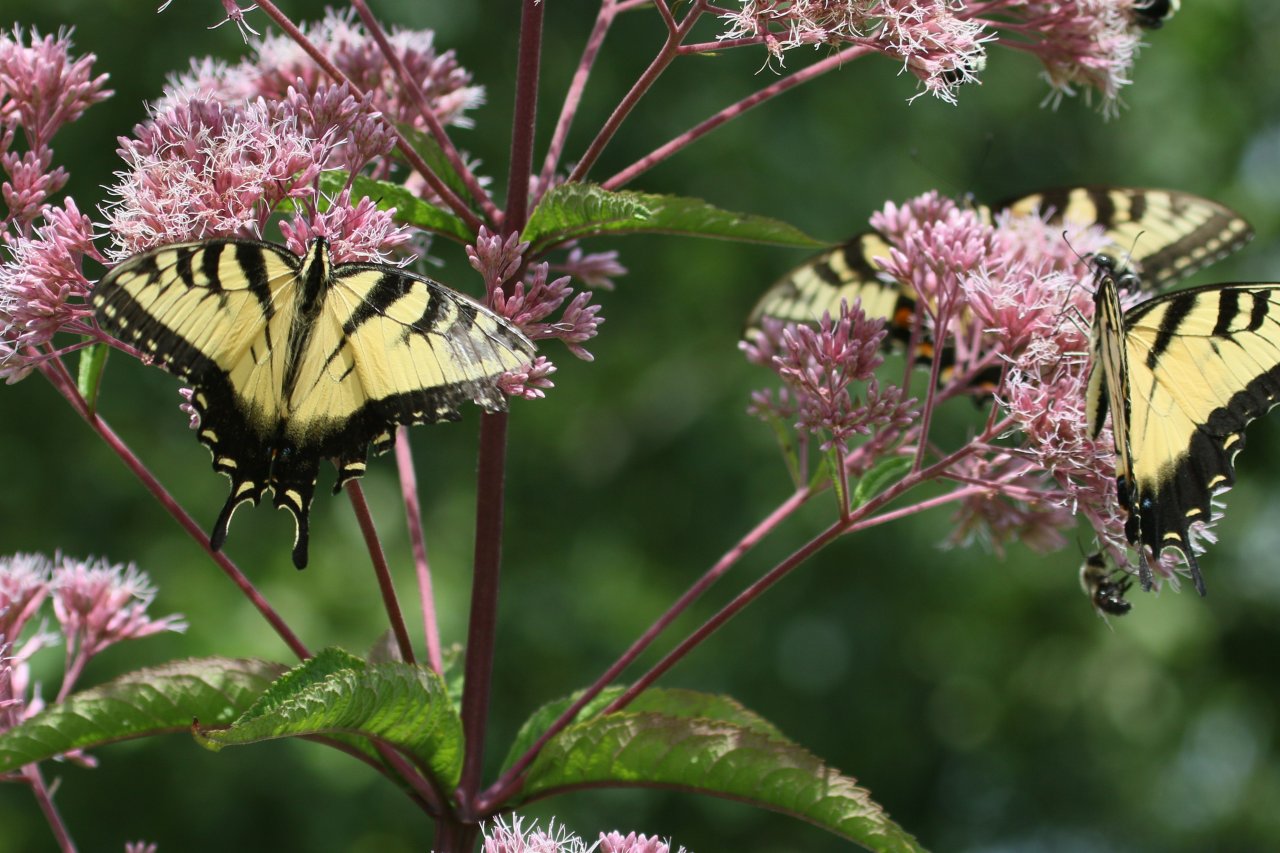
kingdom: Animalia
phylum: Arthropoda
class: Insecta
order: Lepidoptera
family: Papilionidae
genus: Pterourus
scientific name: Pterourus glaucus
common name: Eastern Tiger Swallowtail
